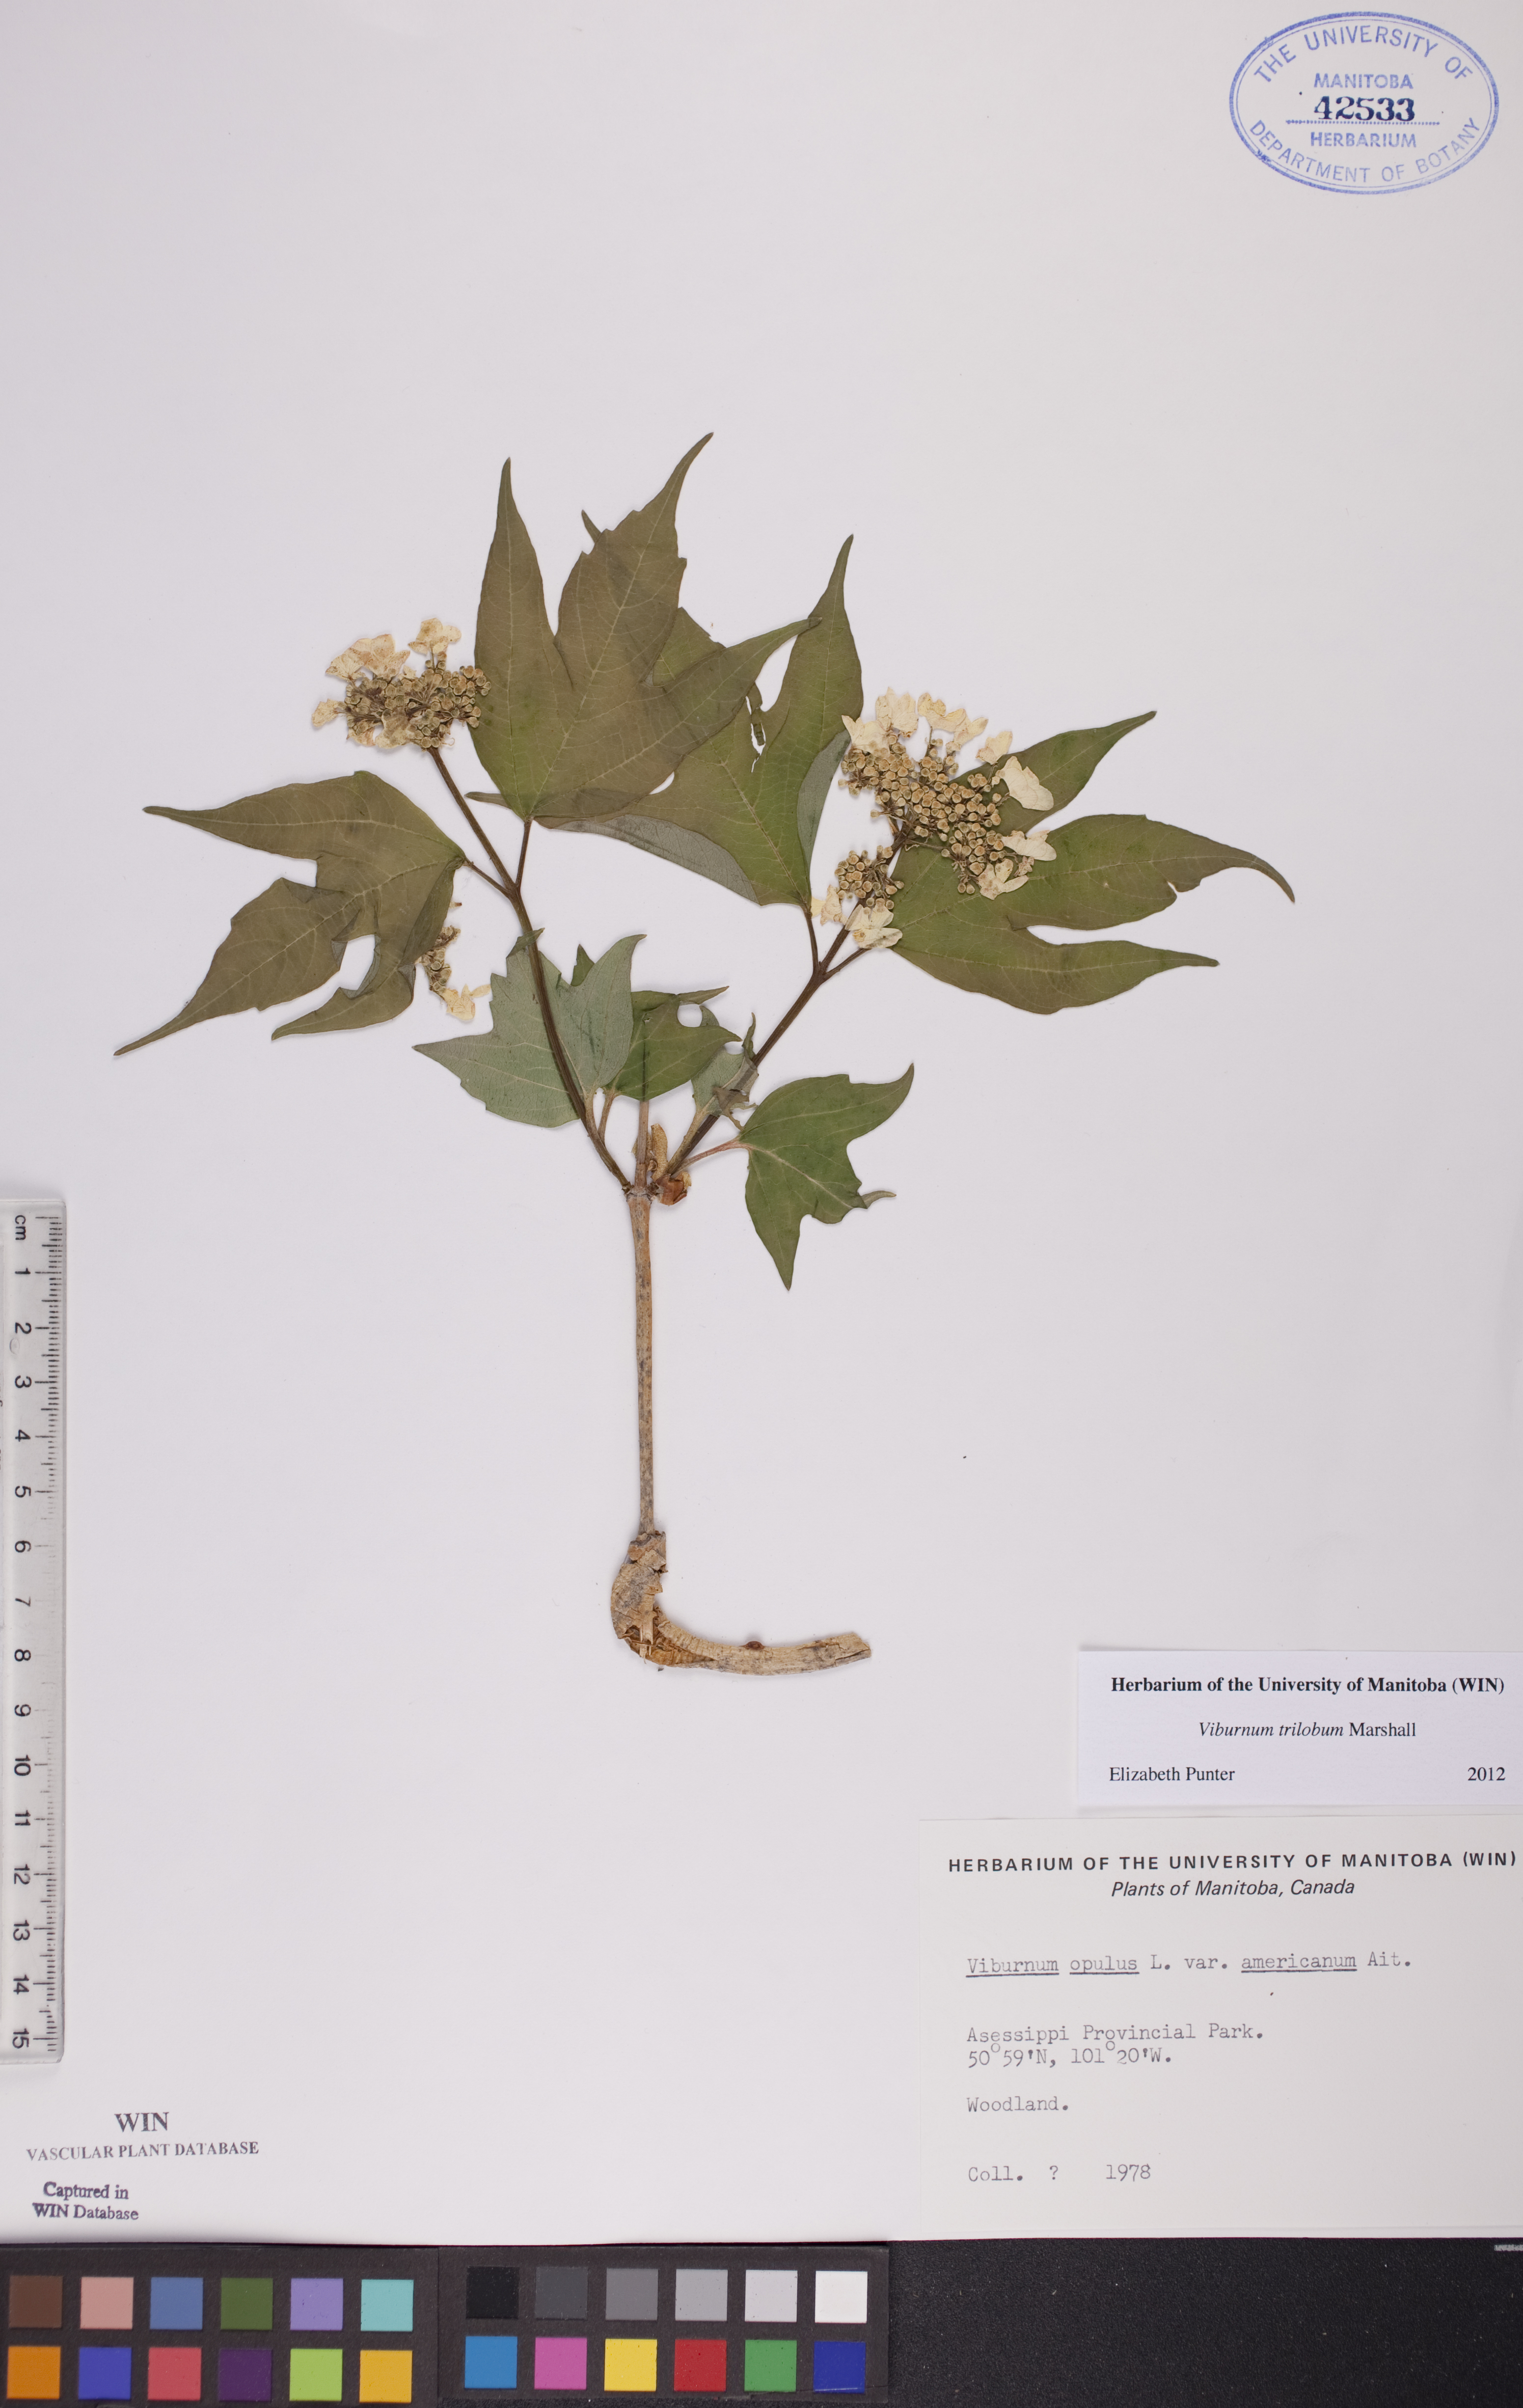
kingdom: Plantae
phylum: Tracheophyta
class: Magnoliopsida
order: Dipsacales
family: Viburnaceae
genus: Viburnum
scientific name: Viburnum trilobum
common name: American cranberrybush
